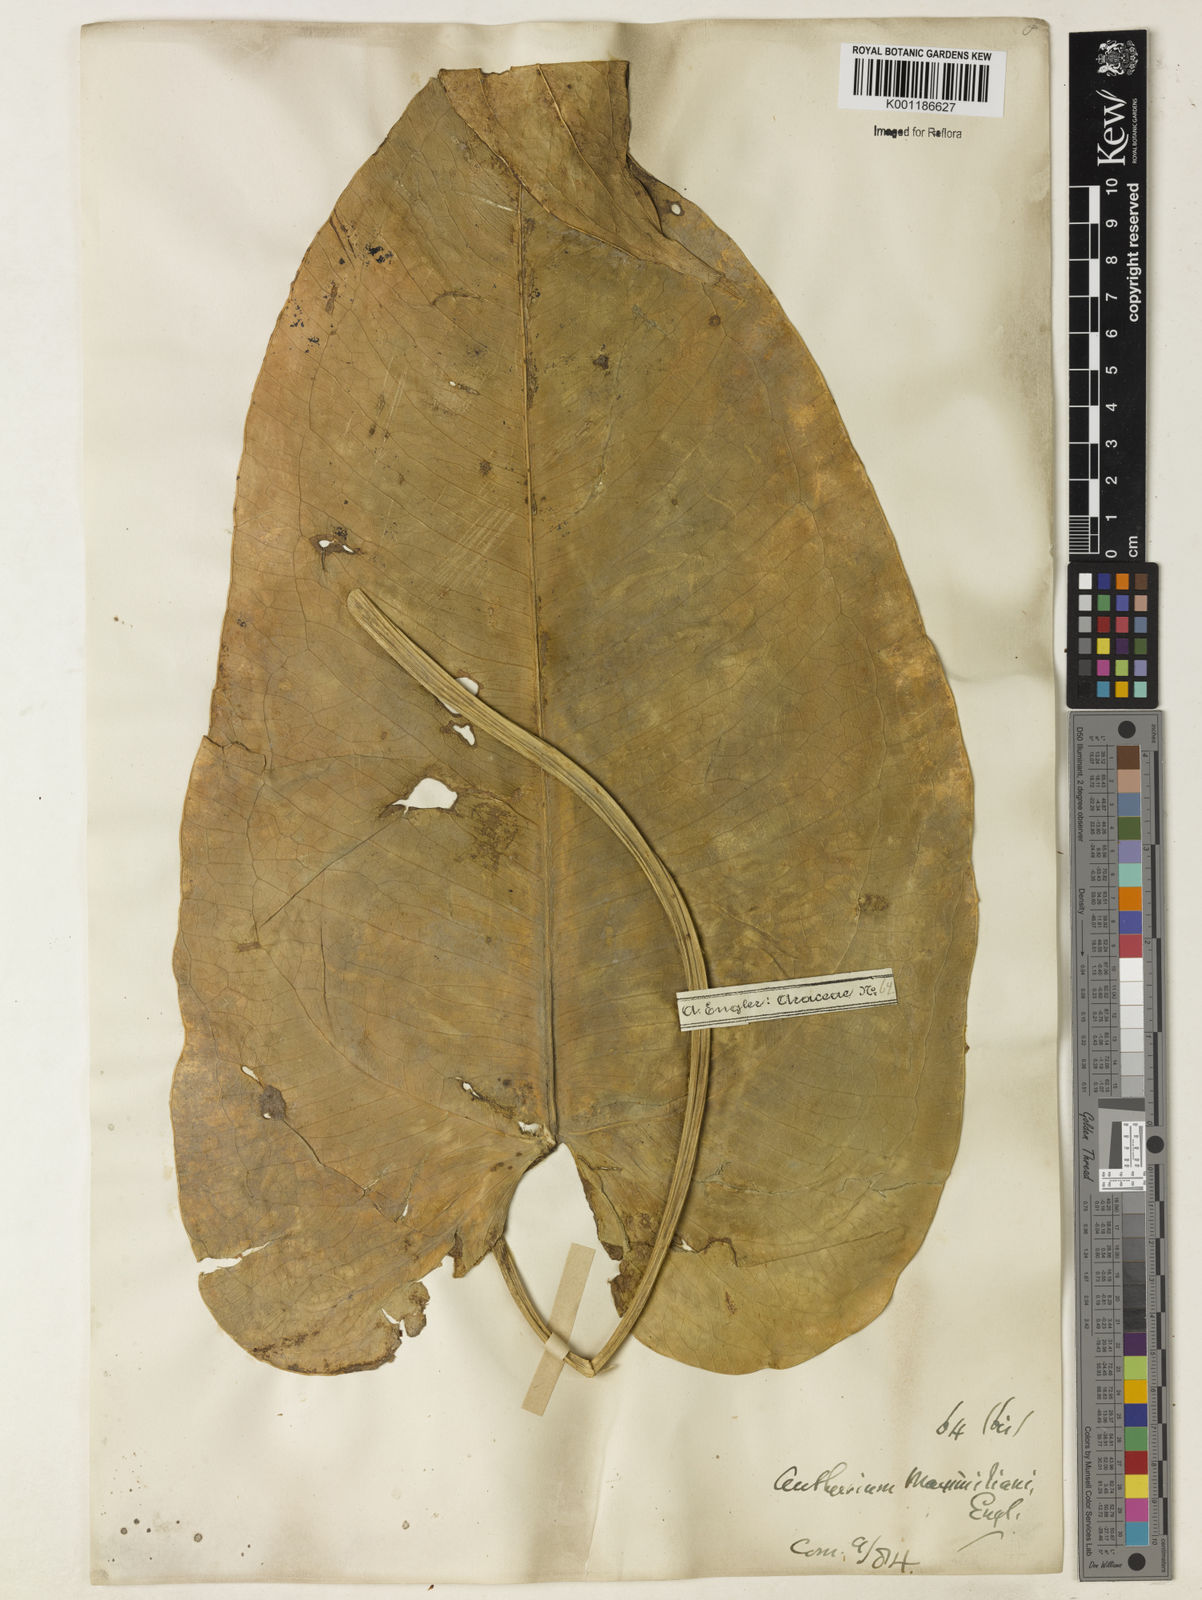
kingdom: Plantae
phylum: Tracheophyta
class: Liliopsida
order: Alismatales
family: Araceae
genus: Anthurium
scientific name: Anthurium augustinum
